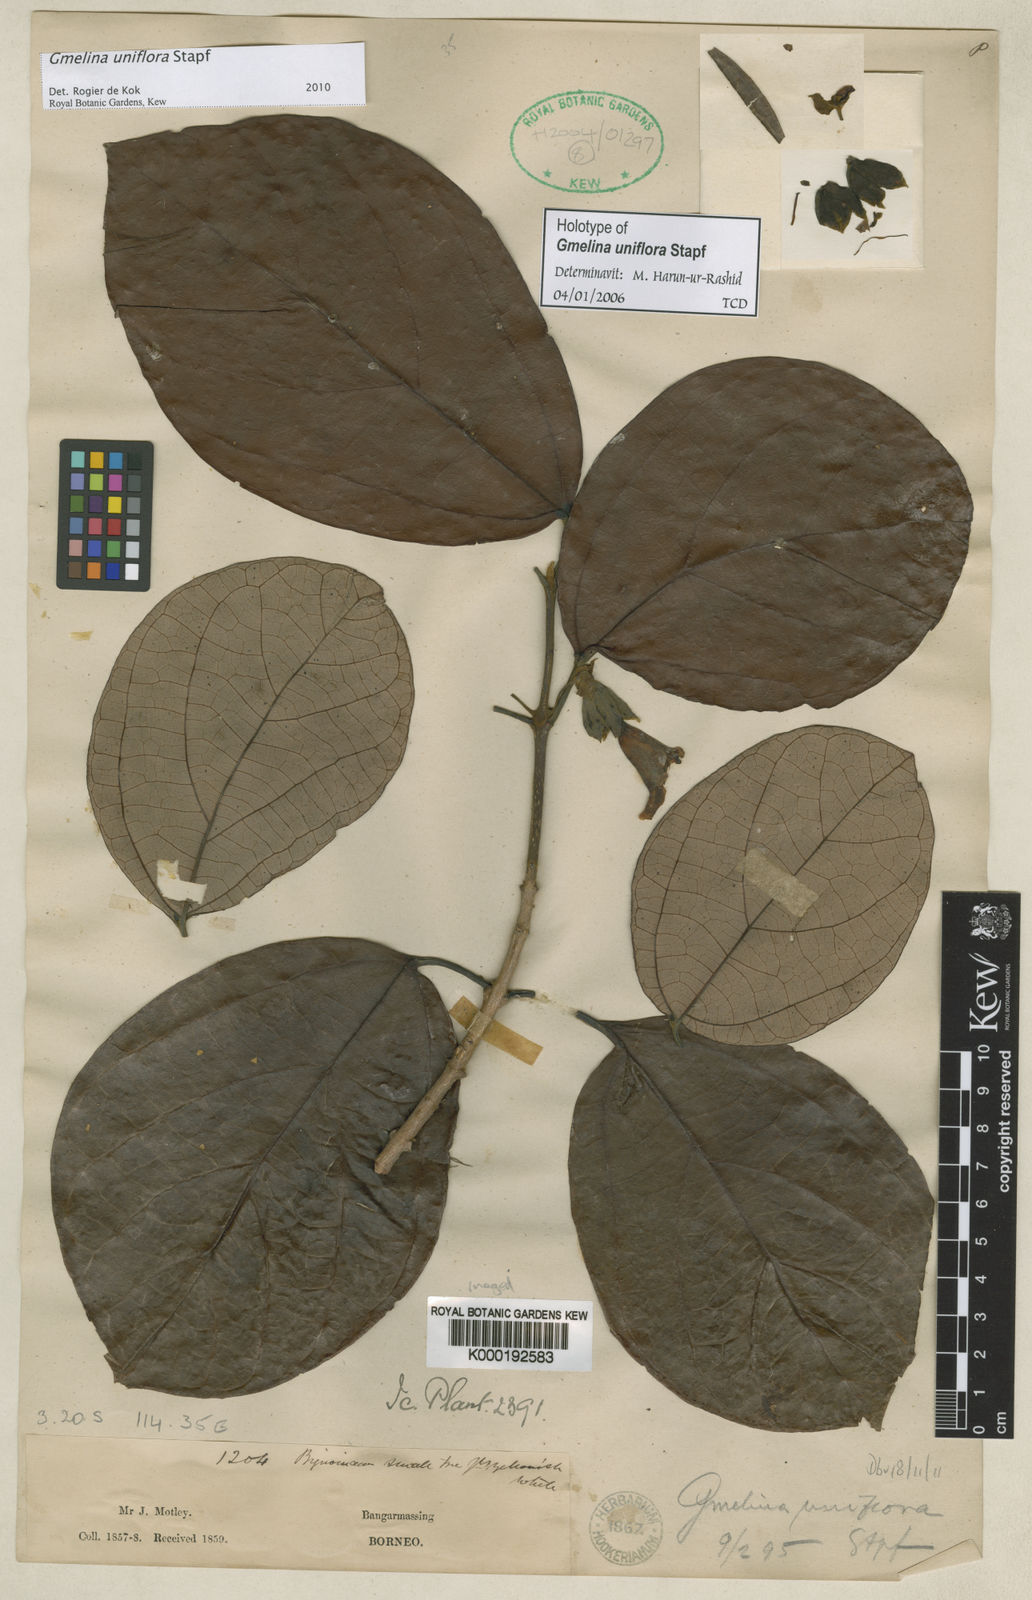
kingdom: Plantae
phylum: Tracheophyta
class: Magnoliopsida
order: Lamiales
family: Lamiaceae
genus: Gmelina
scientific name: Gmelina uniflora
